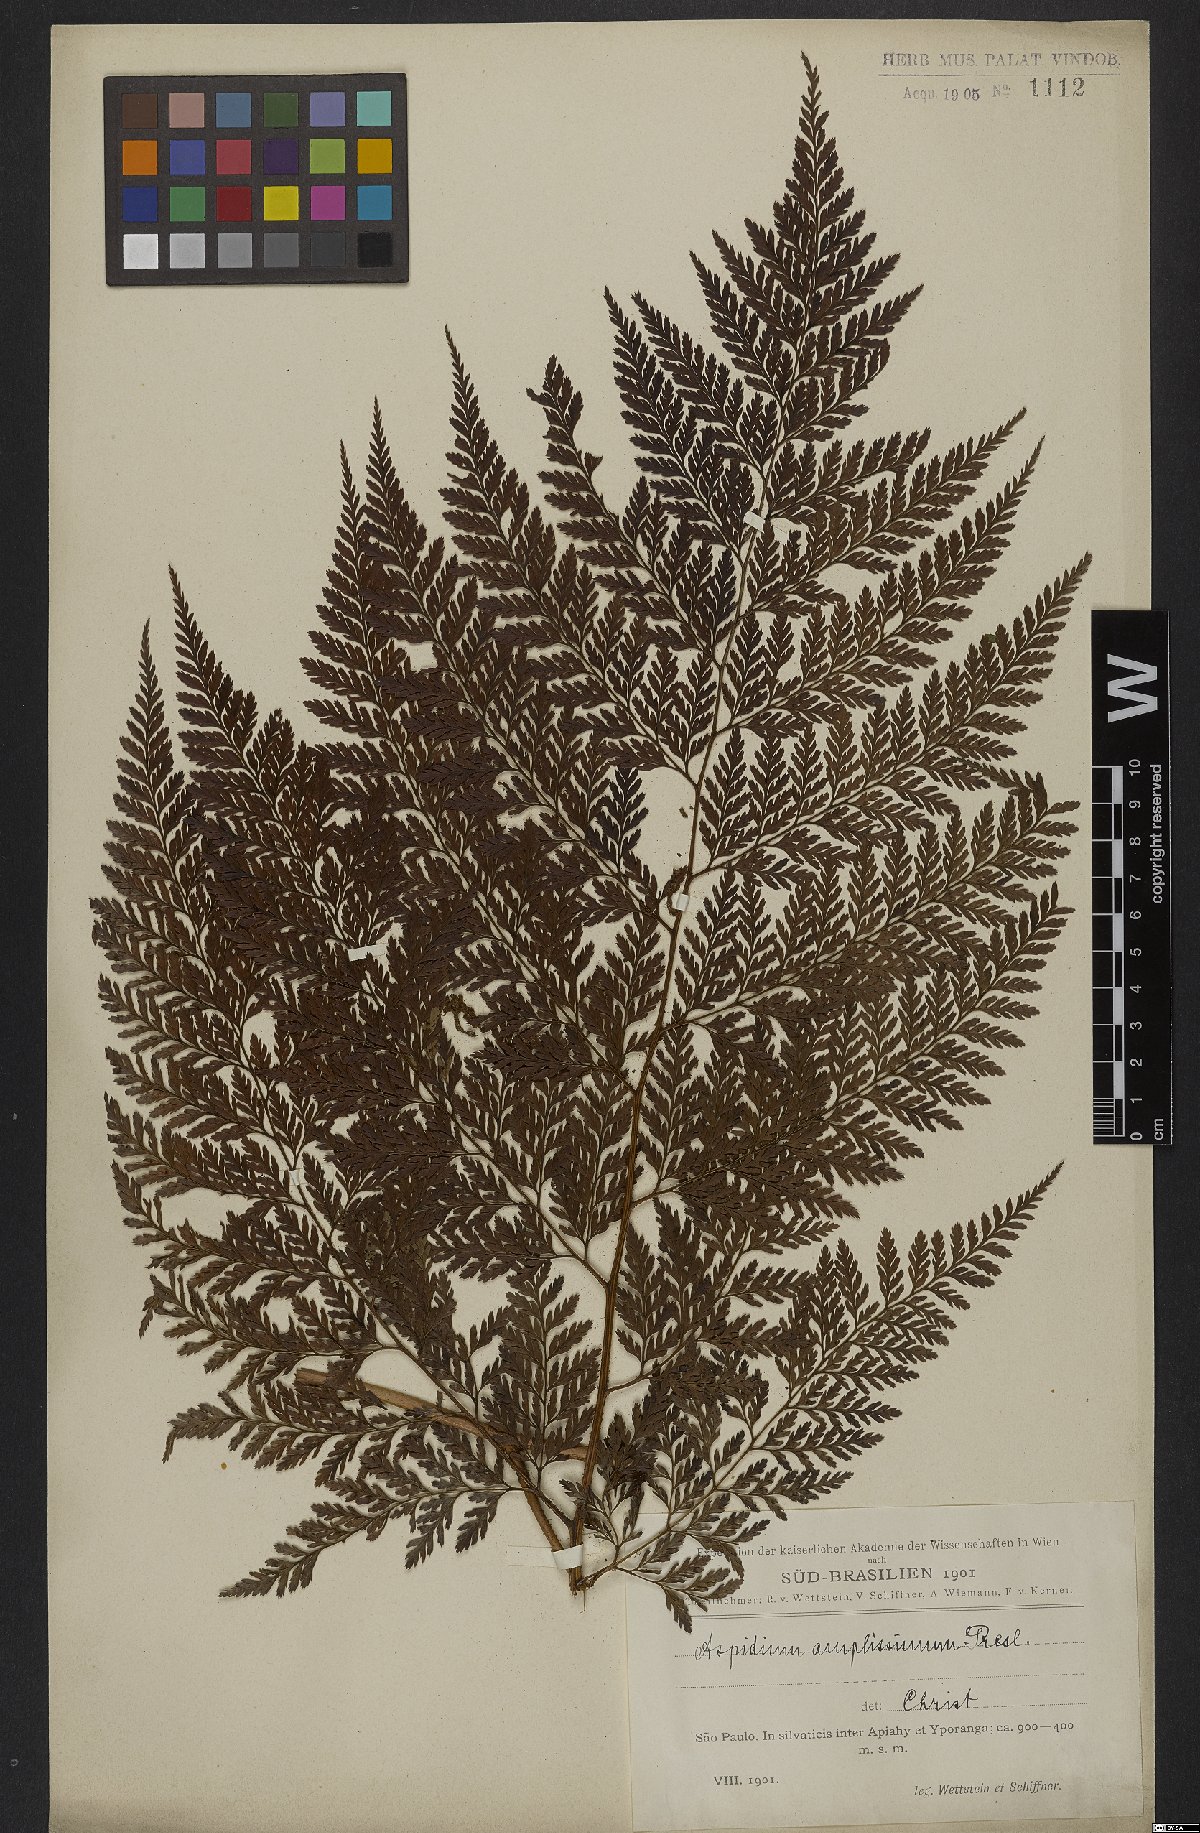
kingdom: Plantae
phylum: Tracheophyta
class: Polypodiopsida
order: Polypodiales
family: Dryopteridaceae
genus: Lastreopsis
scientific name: Lastreopsis amplissima
